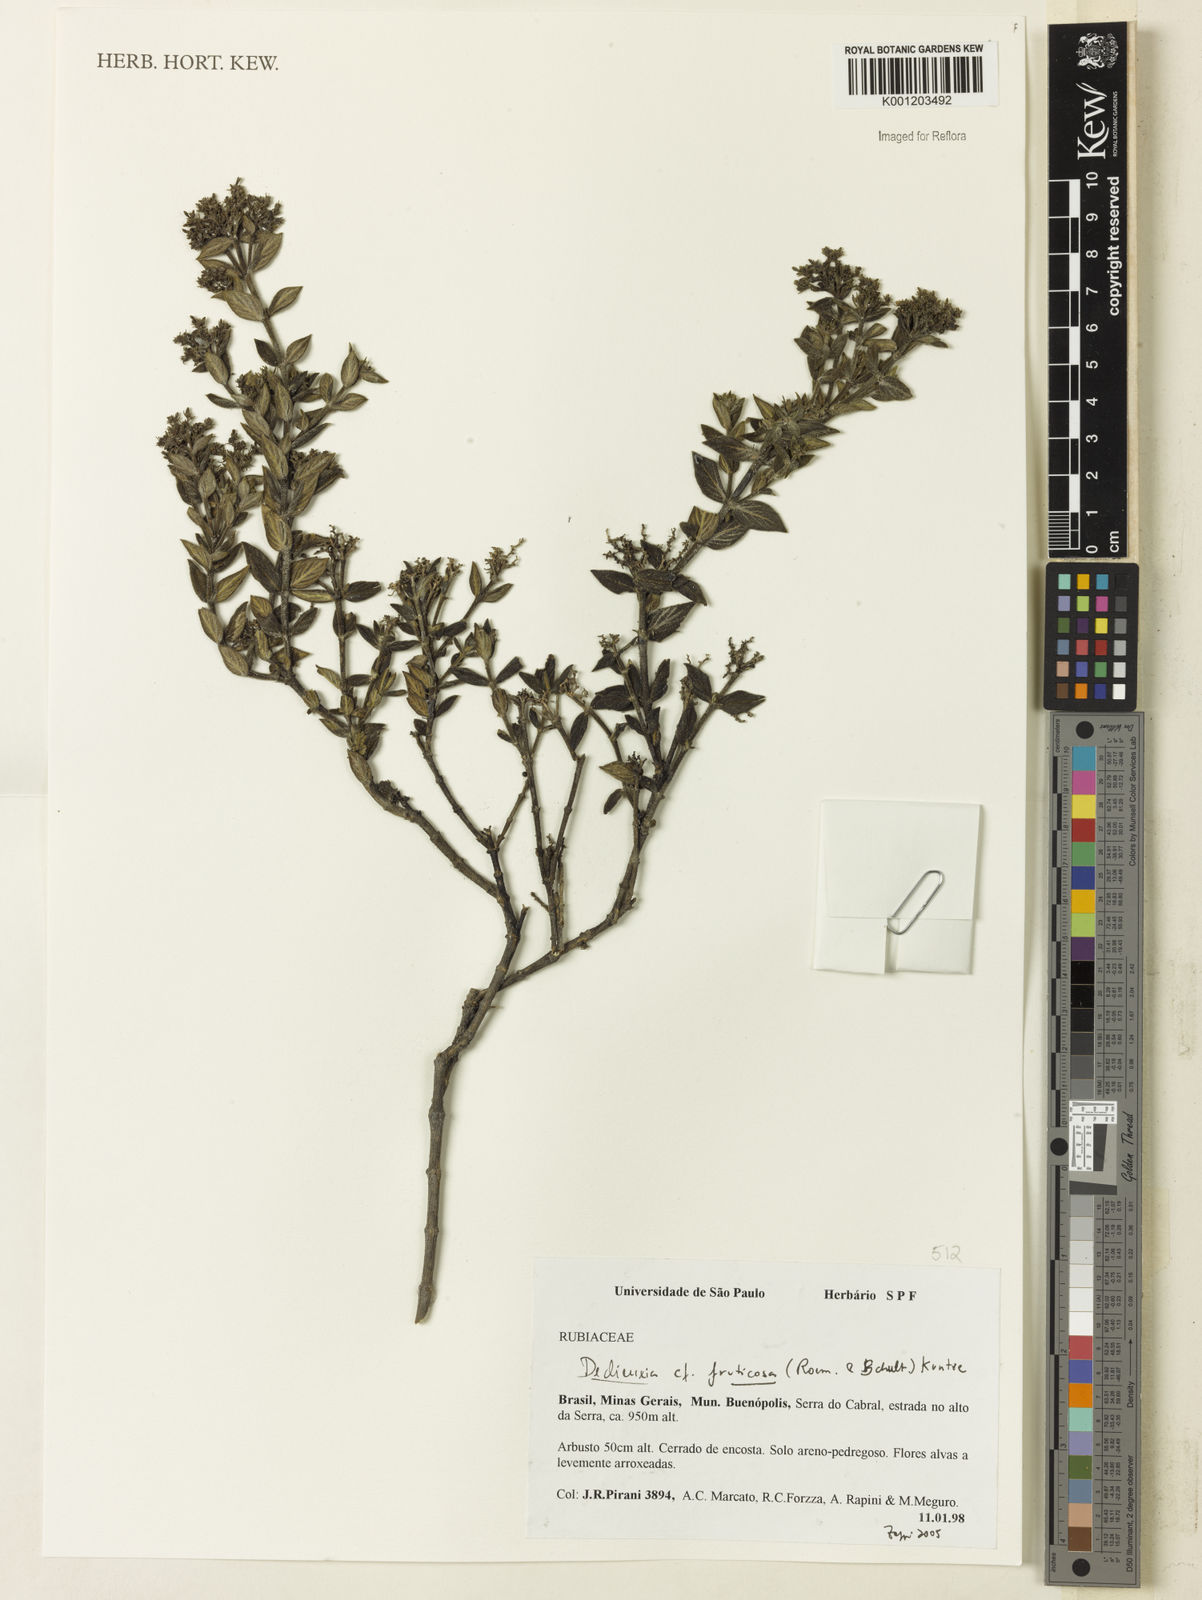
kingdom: Plantae
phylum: Tracheophyta
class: Magnoliopsida
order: Gentianales
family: Rubiaceae
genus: Declieuxia
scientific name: Declieuxia fruticosa
